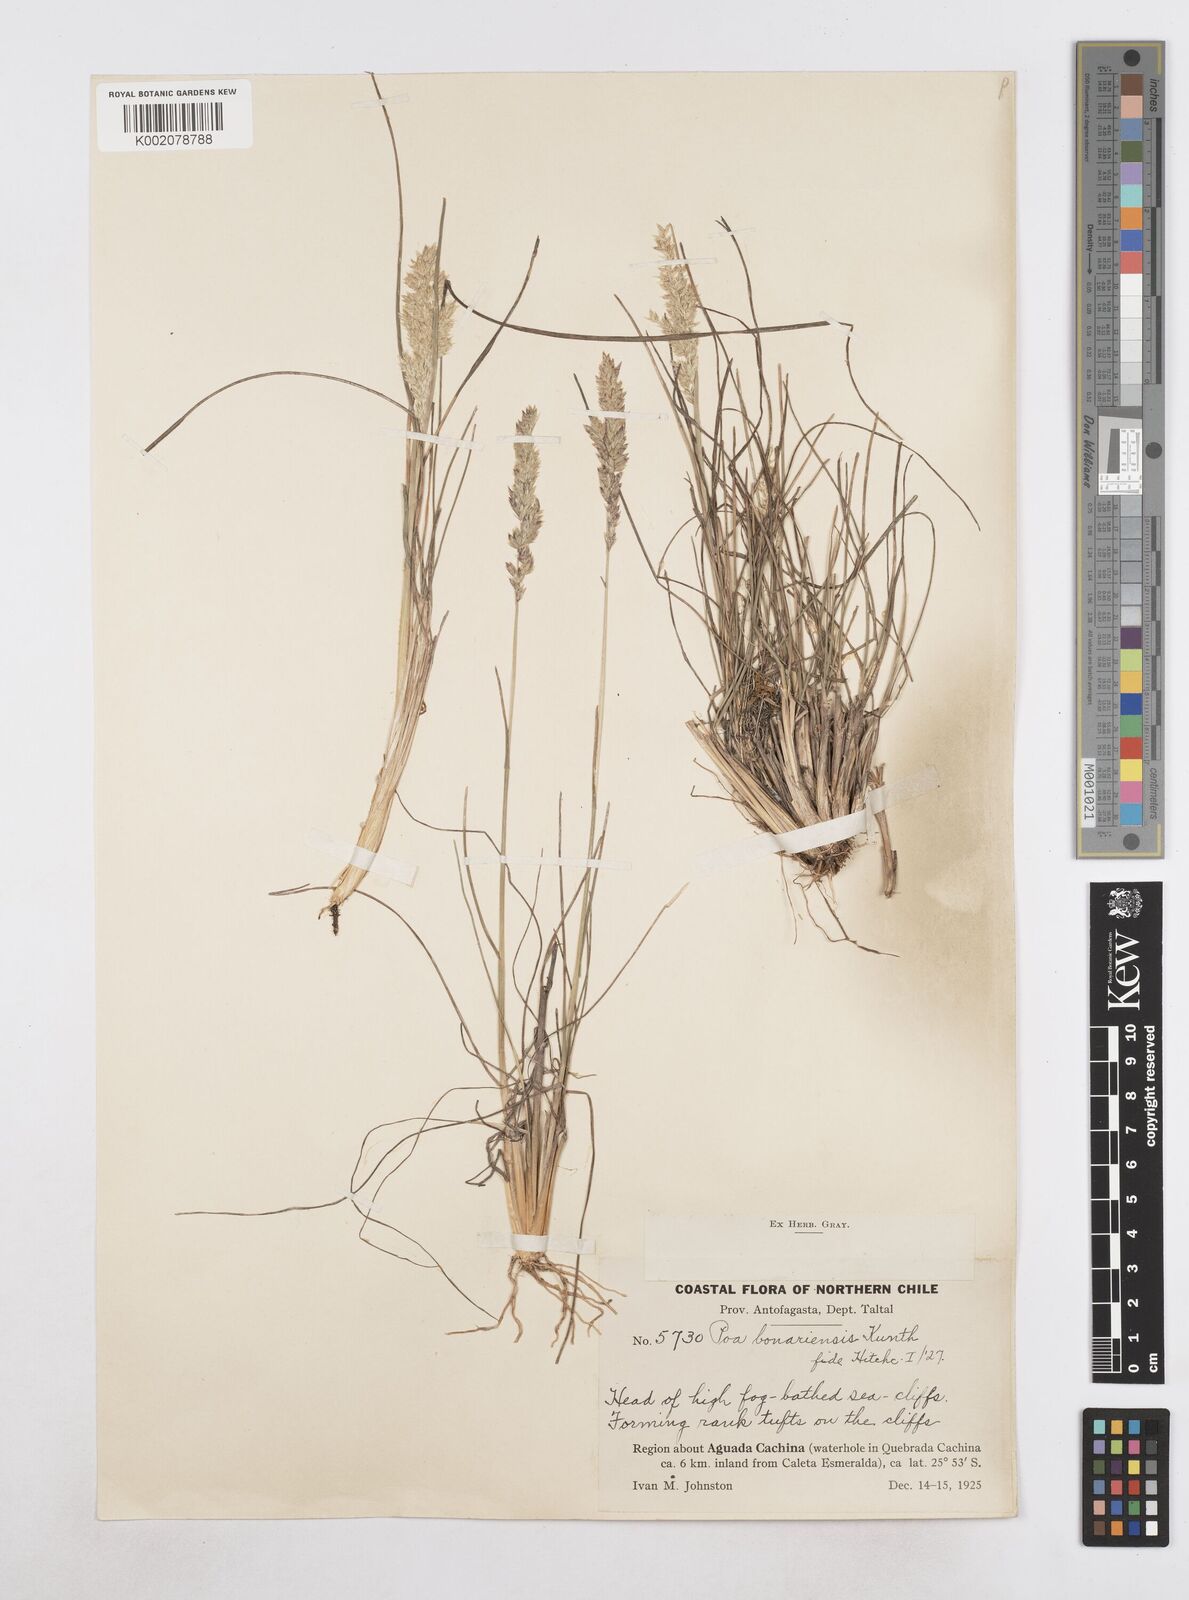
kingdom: Plantae
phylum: Tracheophyta
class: Liliopsida
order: Poales
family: Poaceae
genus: Poa
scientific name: Poa
